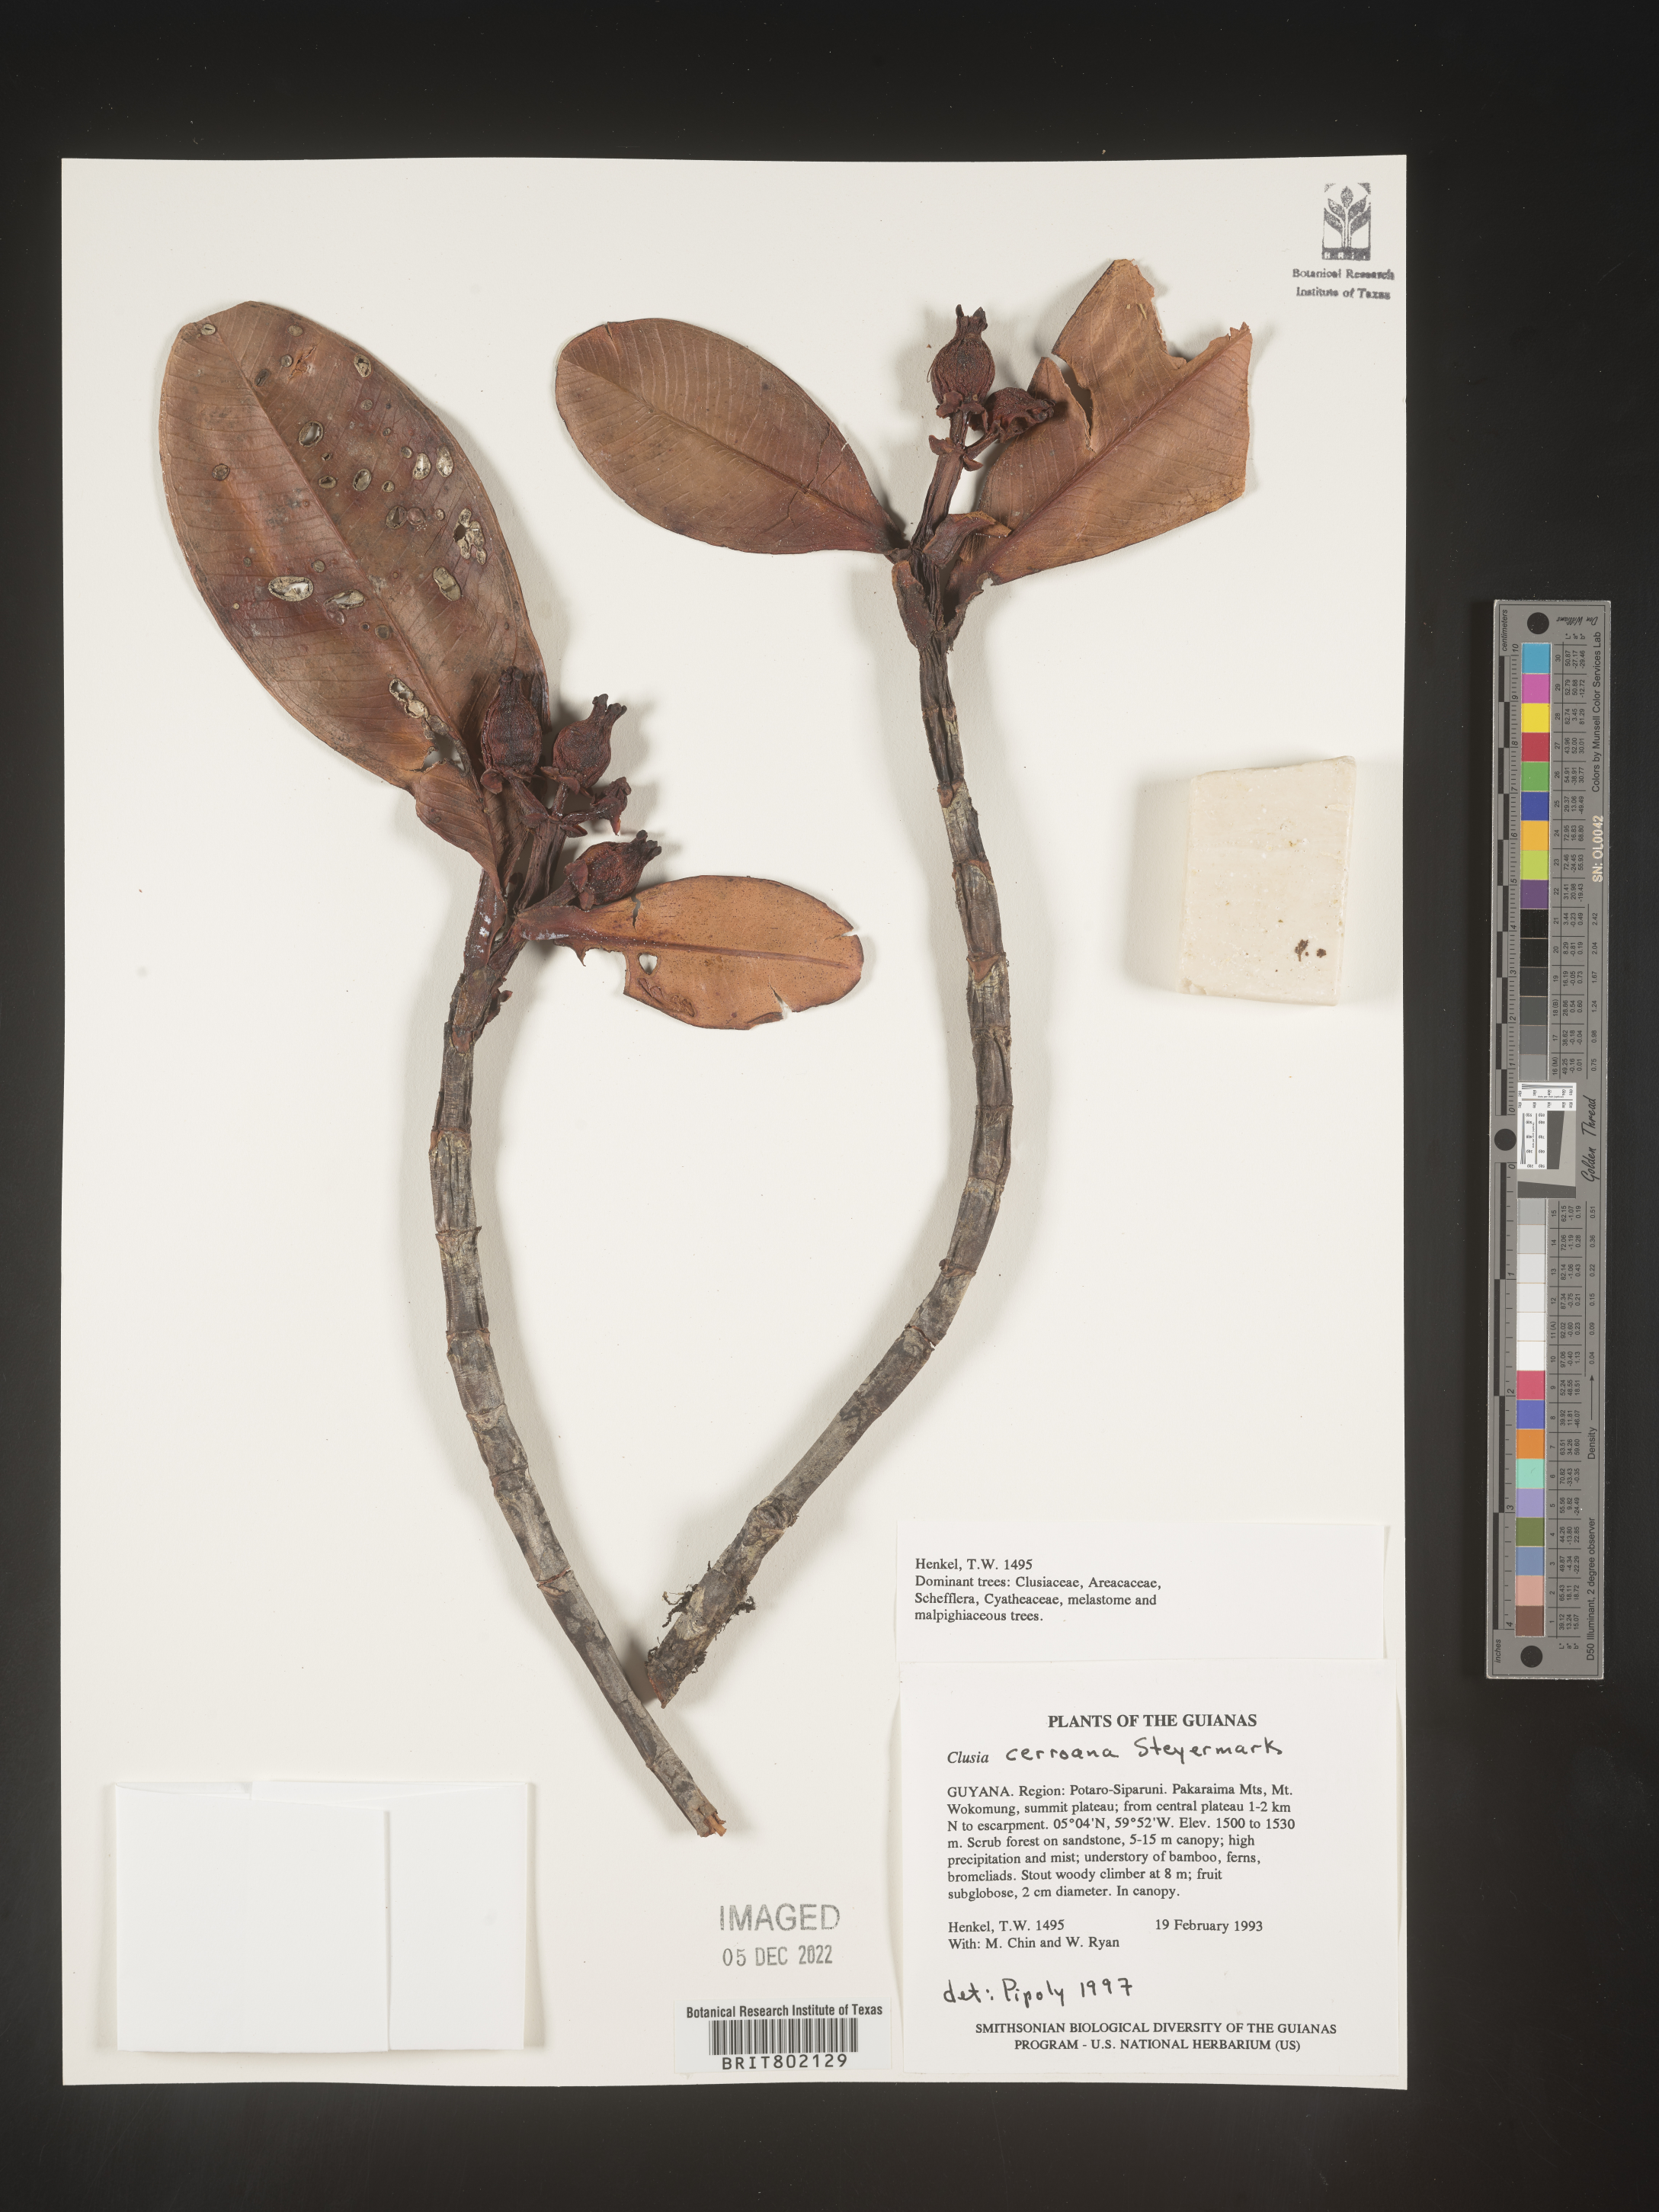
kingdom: Plantae
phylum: Tracheophyta
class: Magnoliopsida
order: Malpighiales
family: Clusiaceae
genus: Clusia
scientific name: Clusia cerroana
